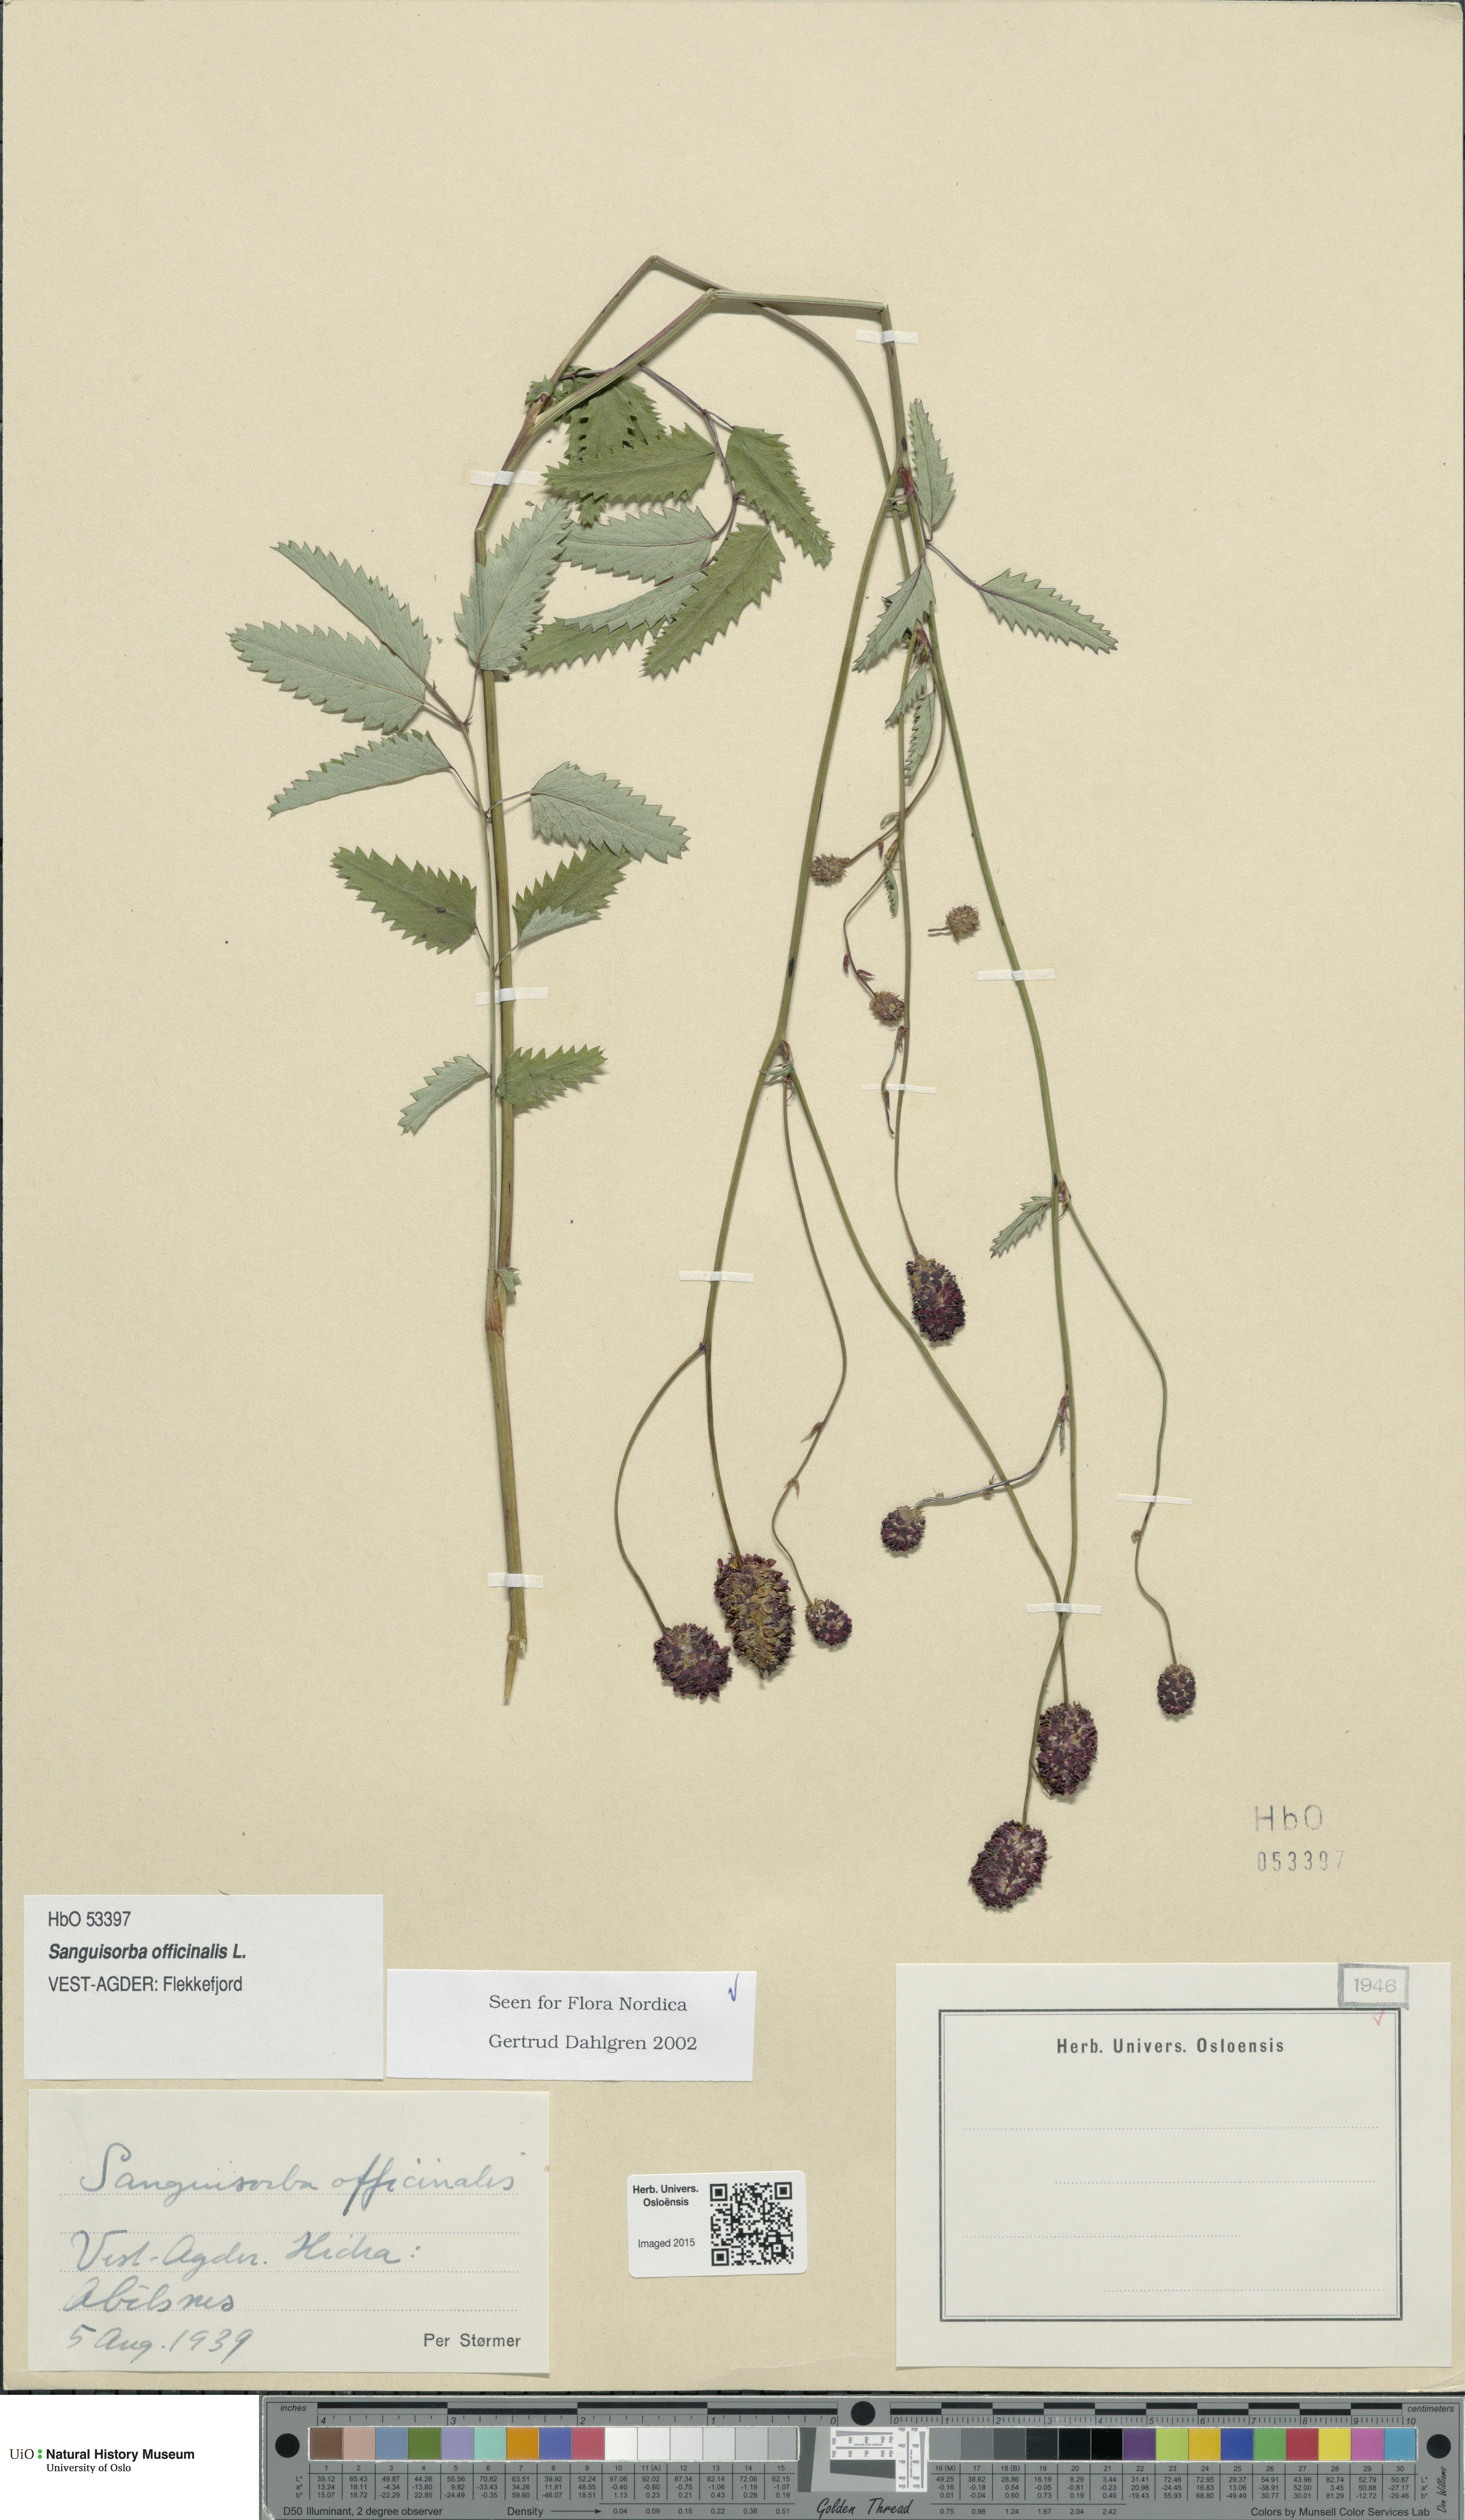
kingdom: Plantae
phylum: Tracheophyta
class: Magnoliopsida
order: Rosales
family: Rosaceae
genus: Sanguisorba
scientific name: Sanguisorba officinalis
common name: Great burnet
